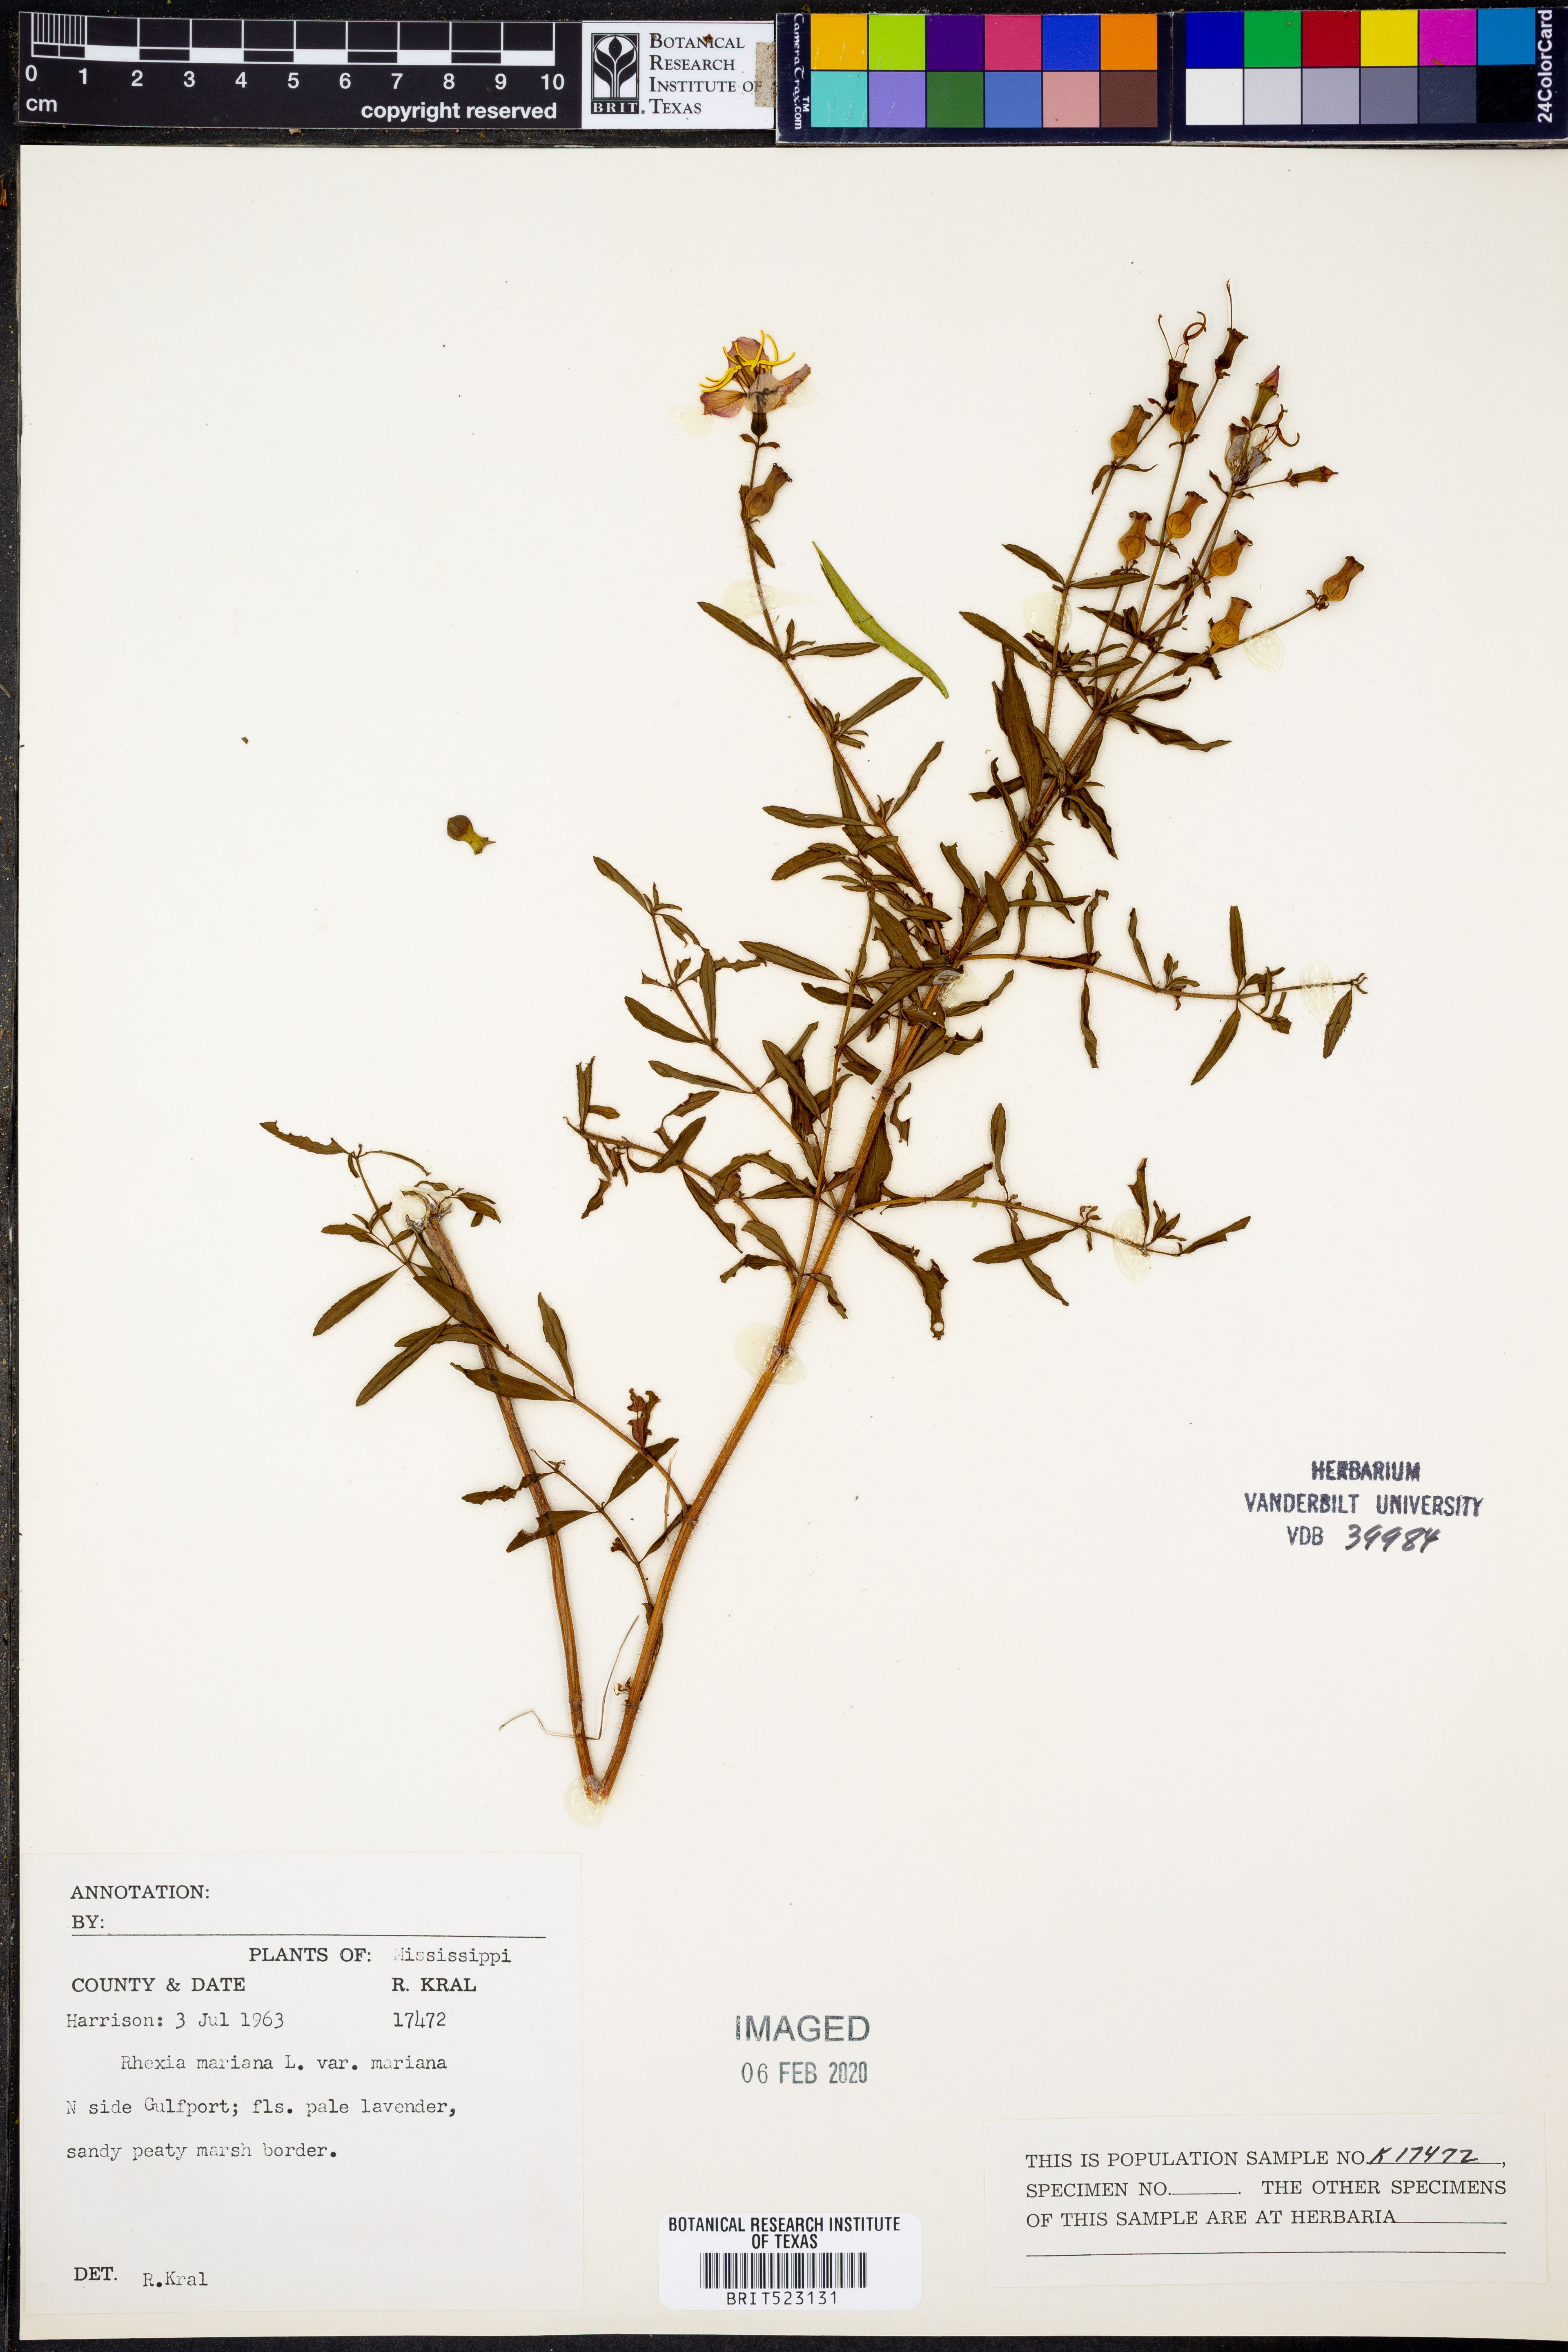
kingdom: Plantae
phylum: Tracheophyta
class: Magnoliopsida
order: Myrtales
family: Melastomataceae
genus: Rhexia
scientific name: Rhexia mariana
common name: Dull meadow-pitcher
